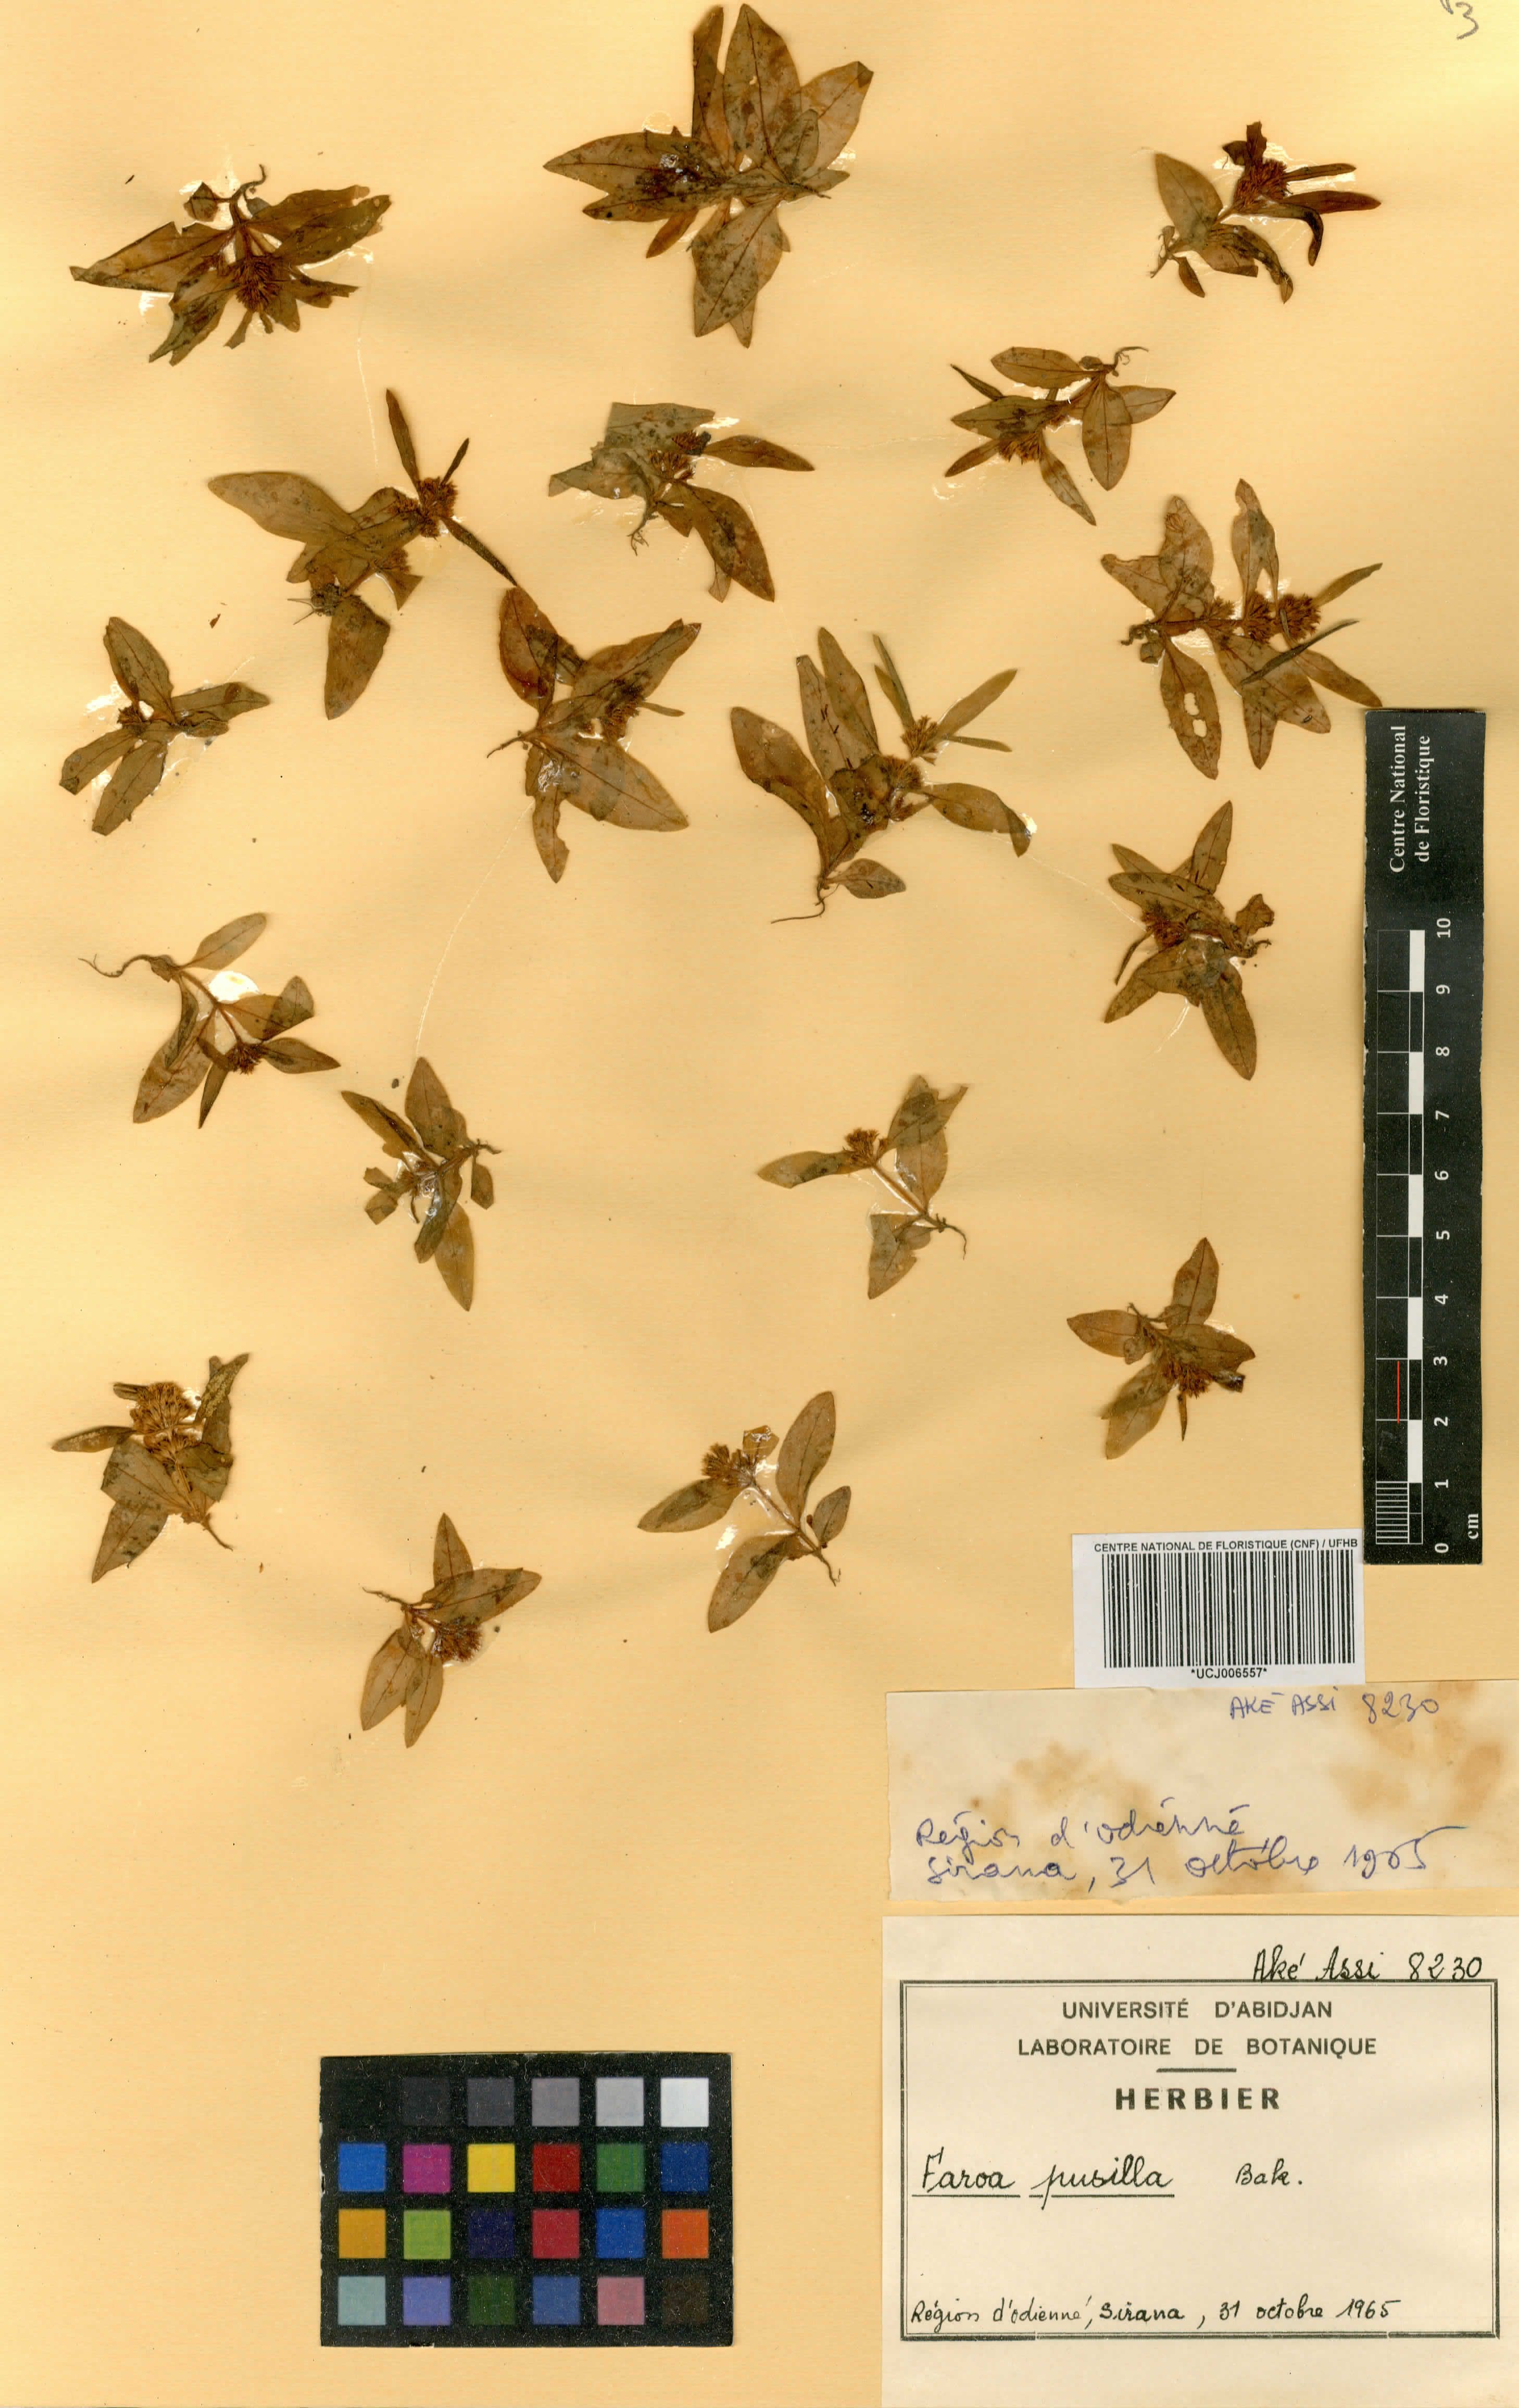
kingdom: Plantae
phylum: Tracheophyta
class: Magnoliopsida
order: Gentianales
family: Gentianaceae
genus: Faroa
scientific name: Faroa pusilla
